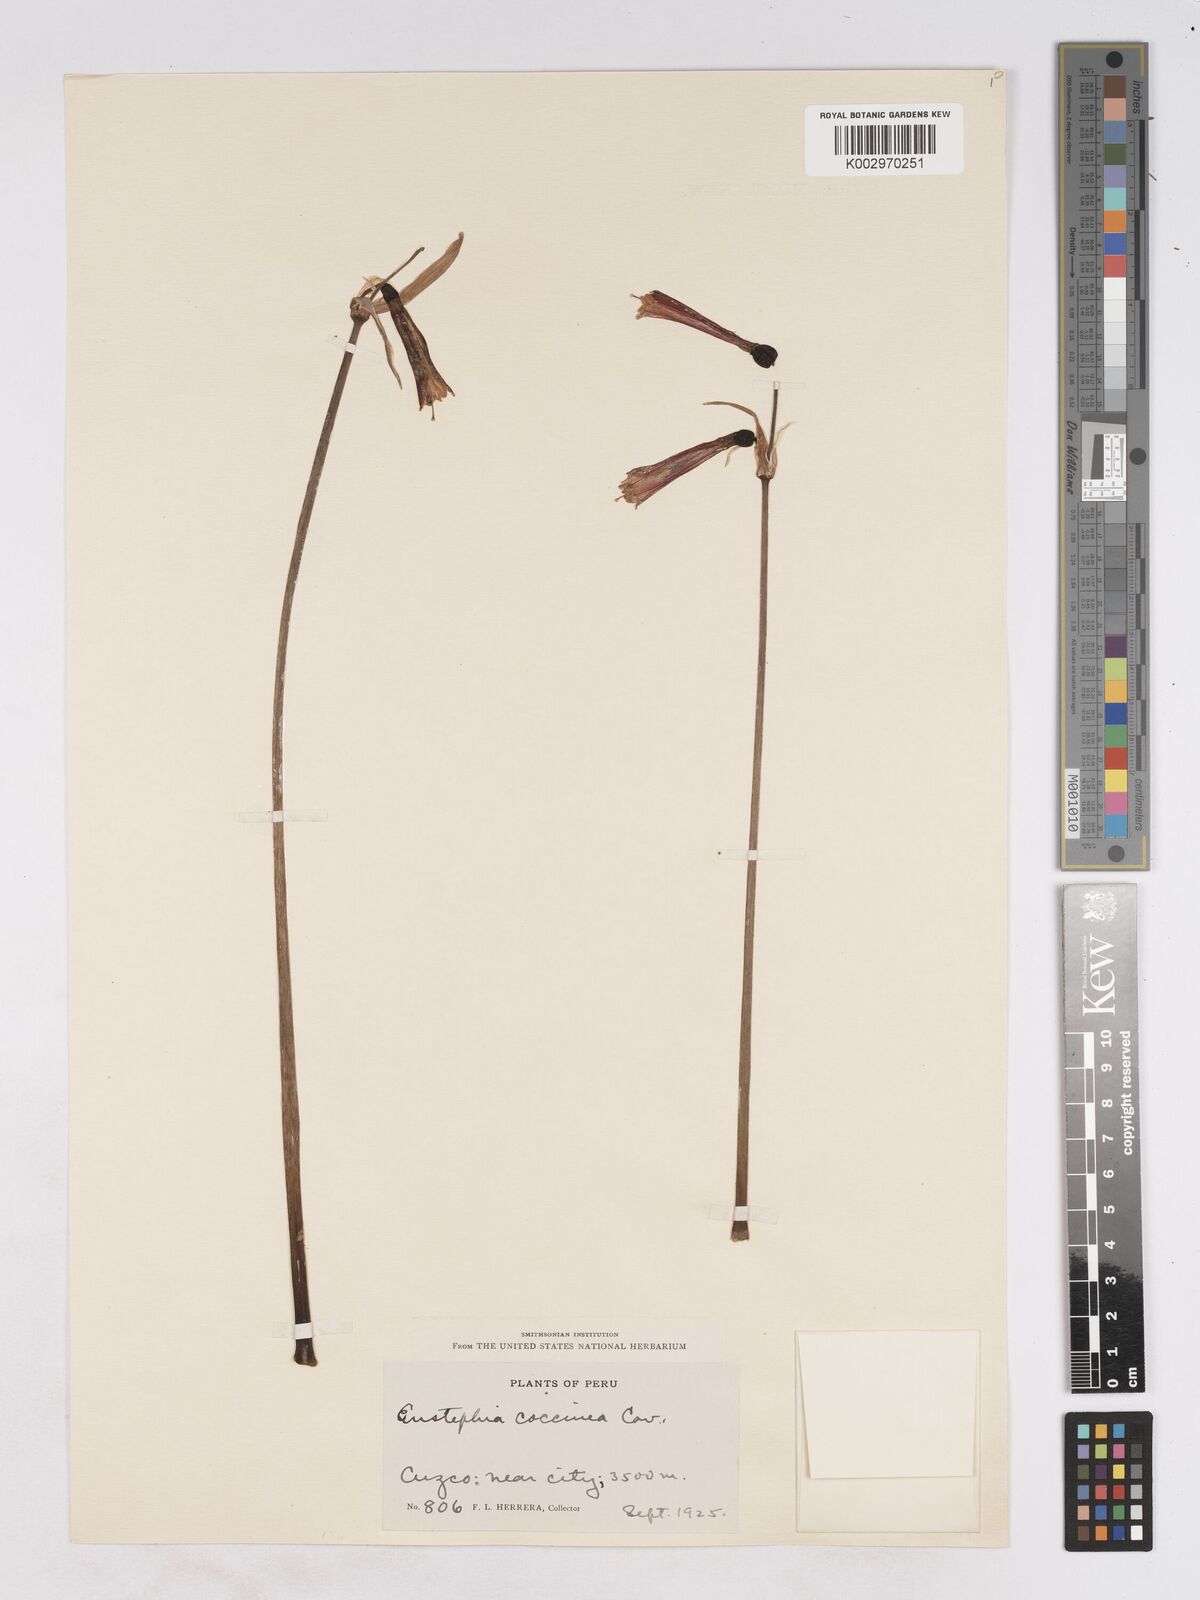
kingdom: Plantae
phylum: Tracheophyta
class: Liliopsida
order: Asparagales
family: Amaryllidaceae
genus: Eustephia
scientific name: Eustephia coccinea
